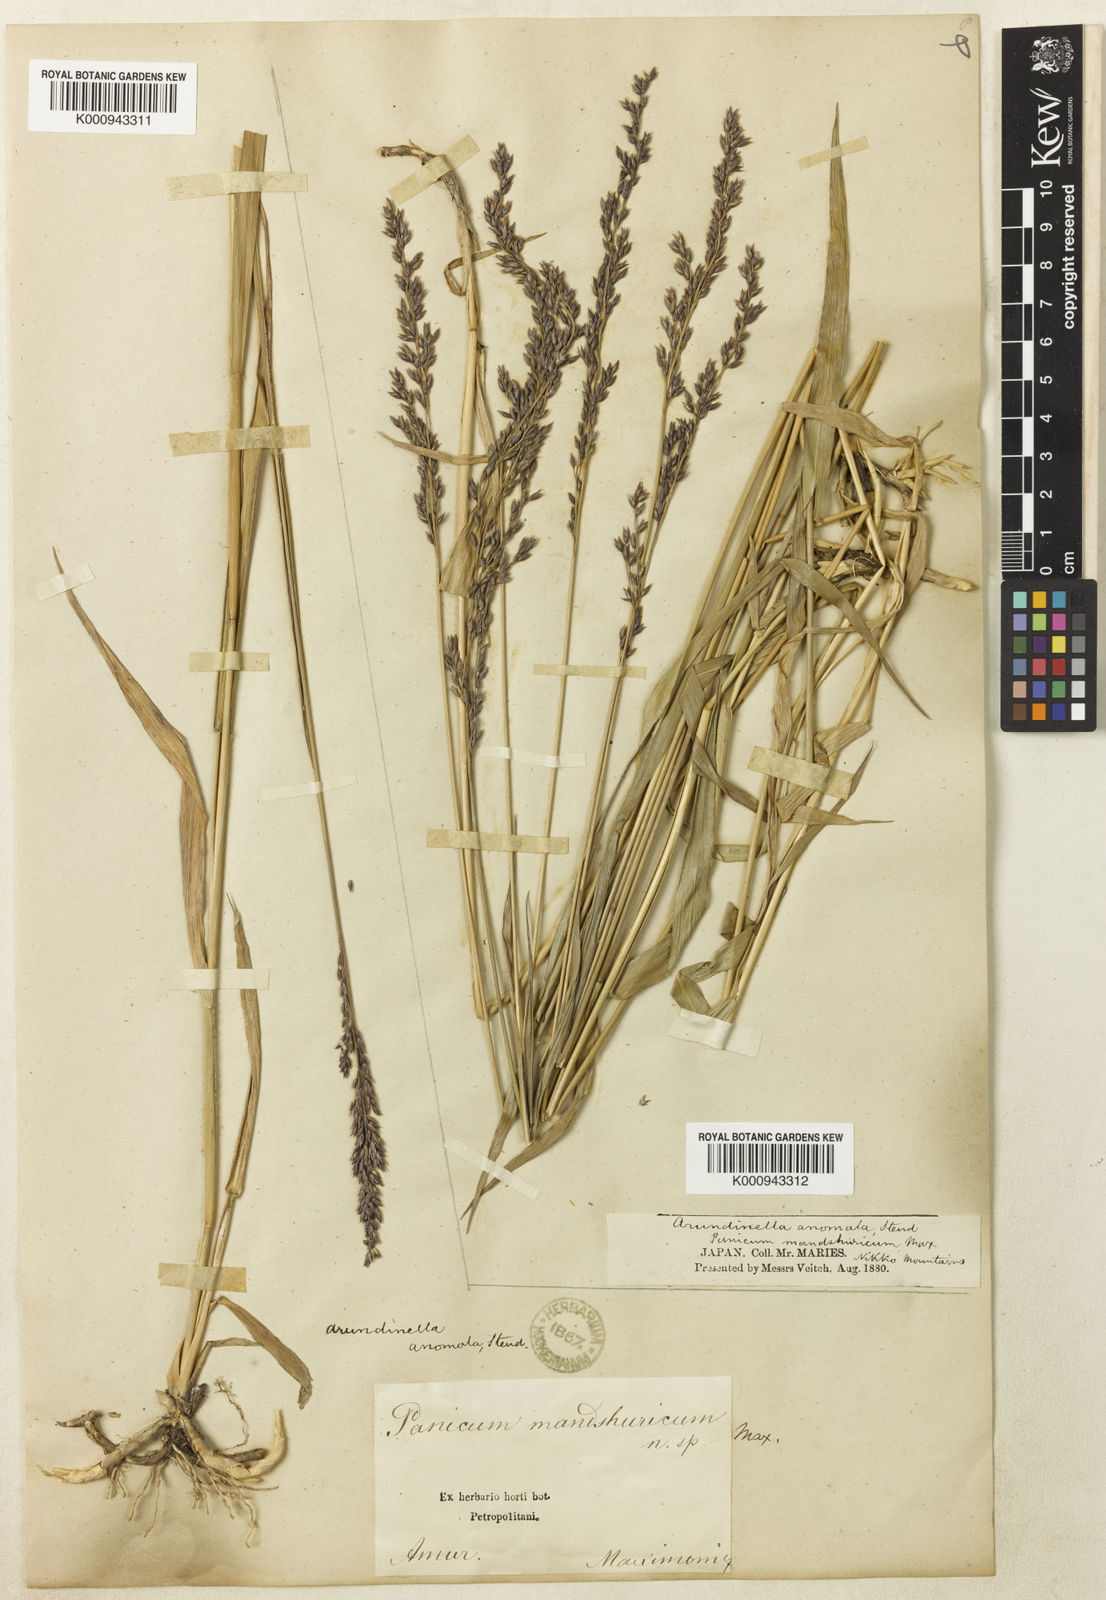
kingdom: Plantae
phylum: Tracheophyta
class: Liliopsida
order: Poales
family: Poaceae
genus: Arundinella
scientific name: Arundinella hirta
